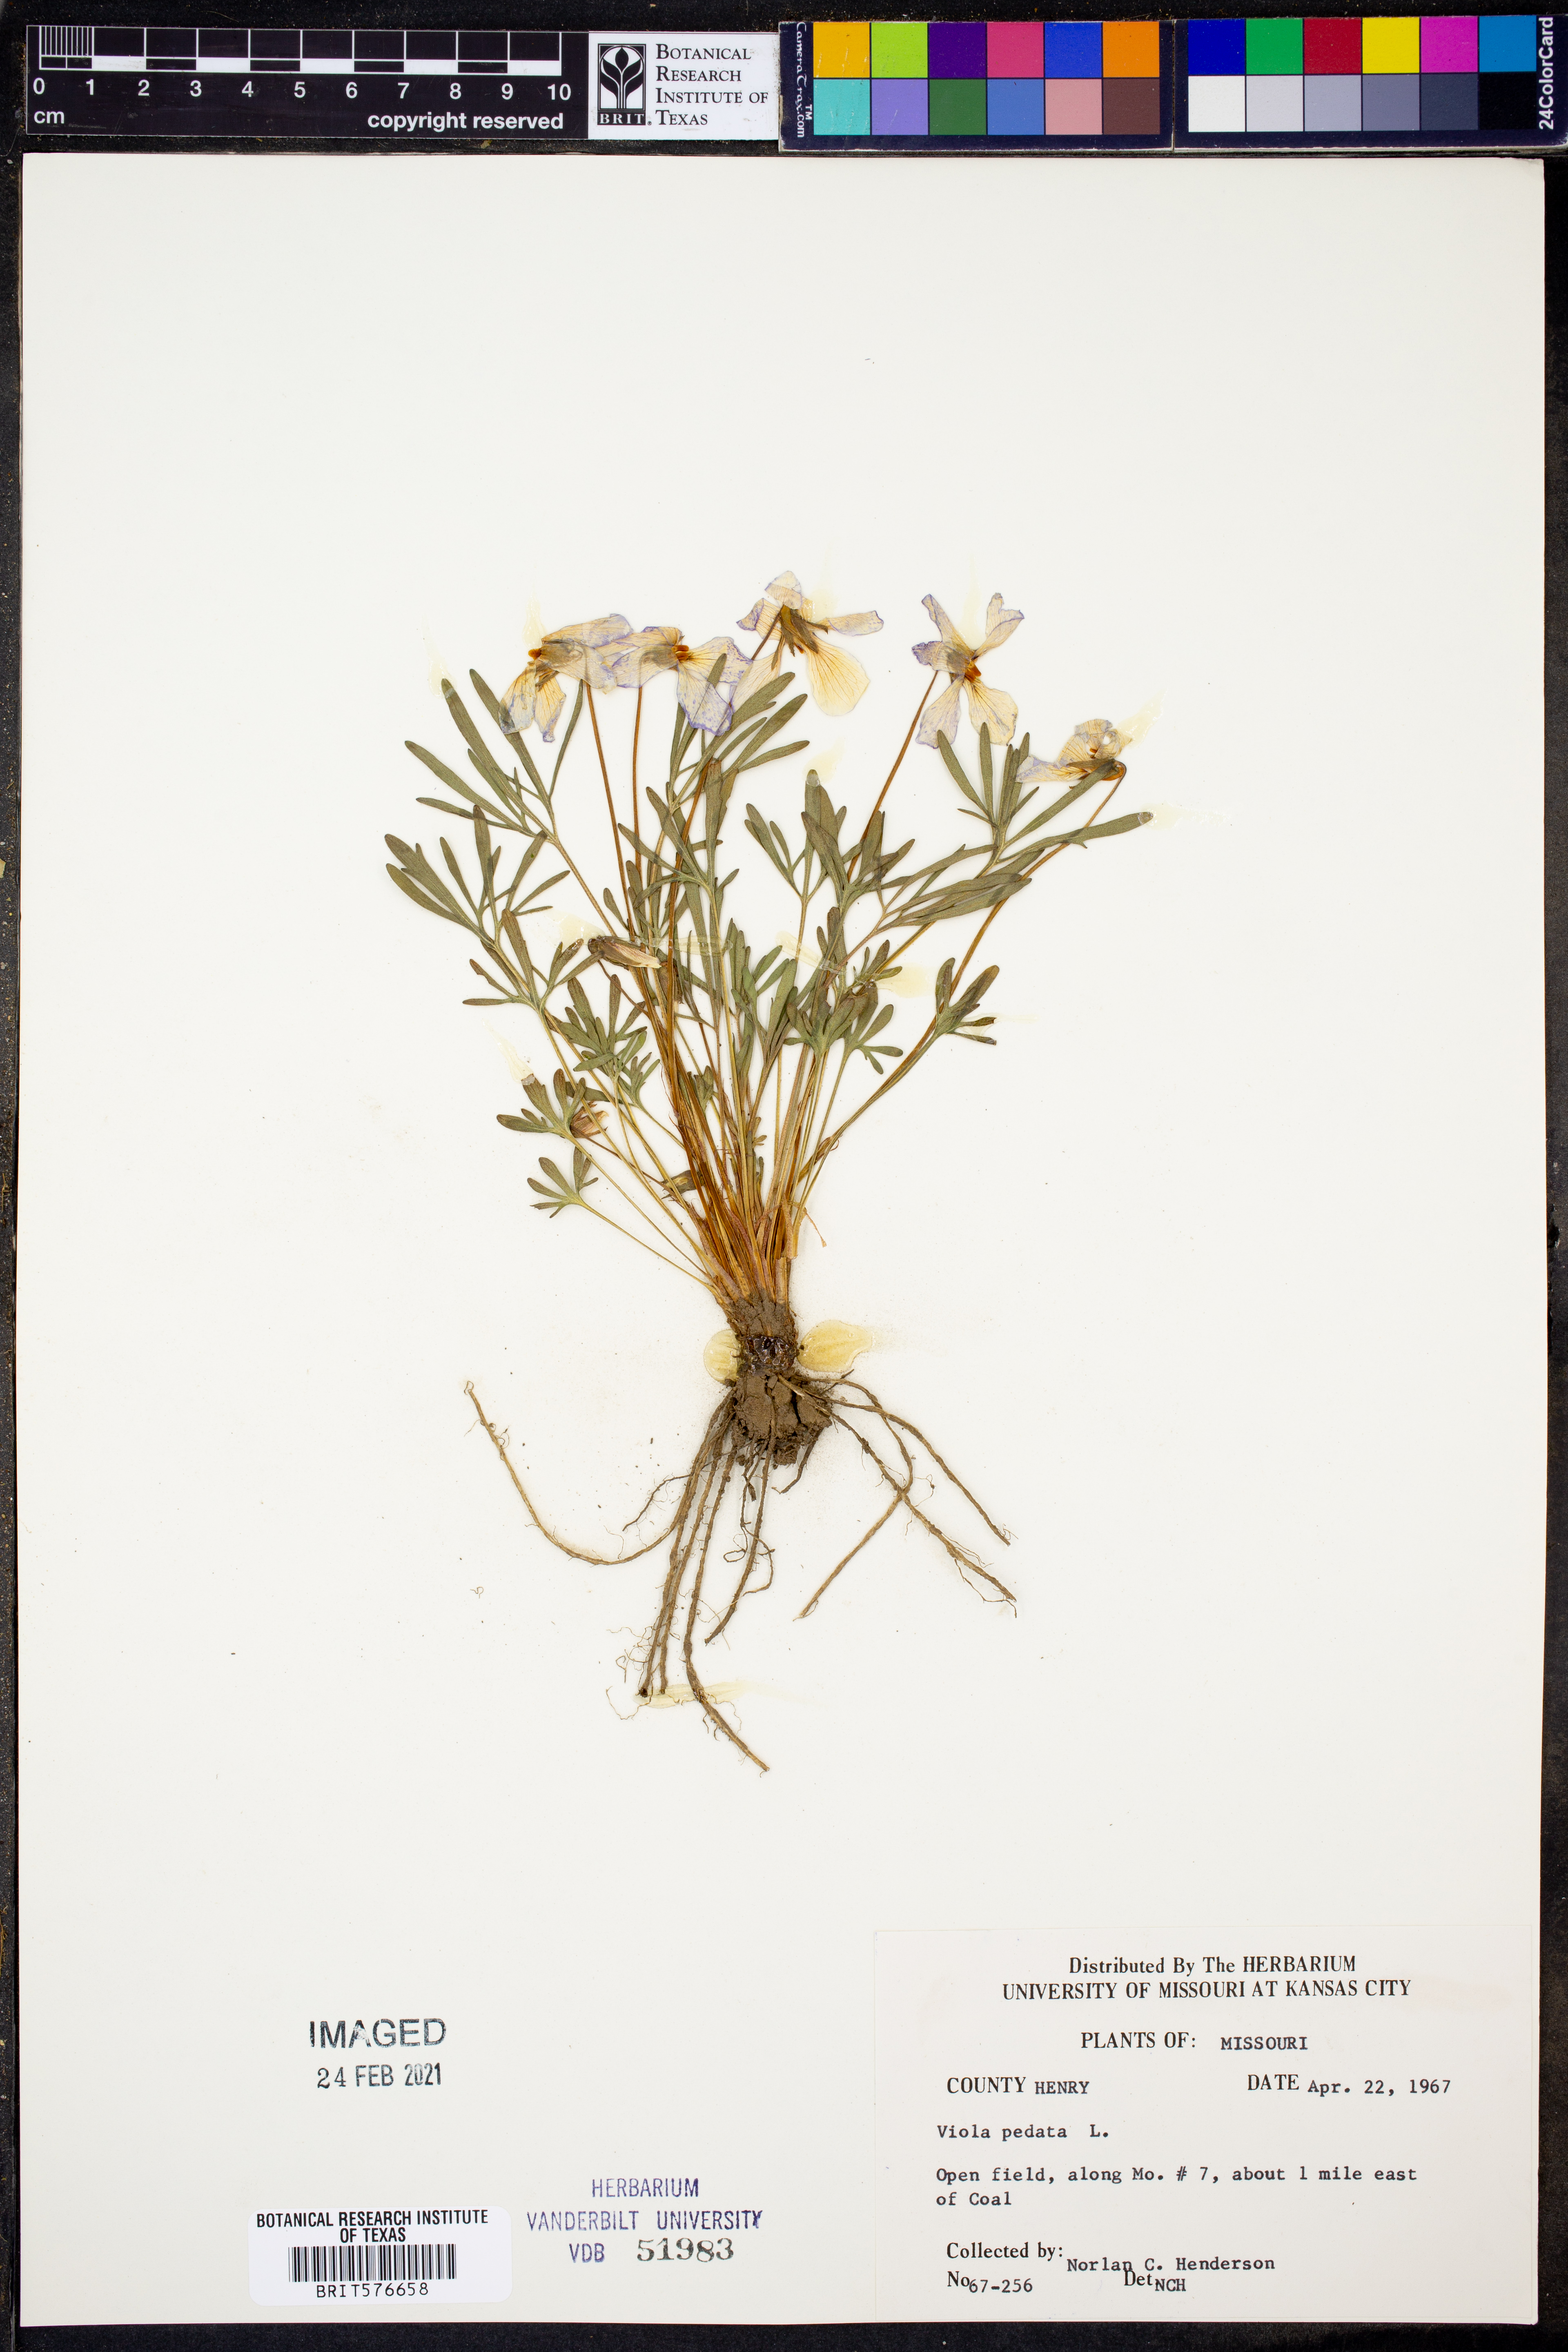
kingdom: Plantae
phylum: Tracheophyta
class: Magnoliopsida
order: Malpighiales
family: Violaceae
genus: Viola
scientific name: Viola pedata
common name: Pansy violet
